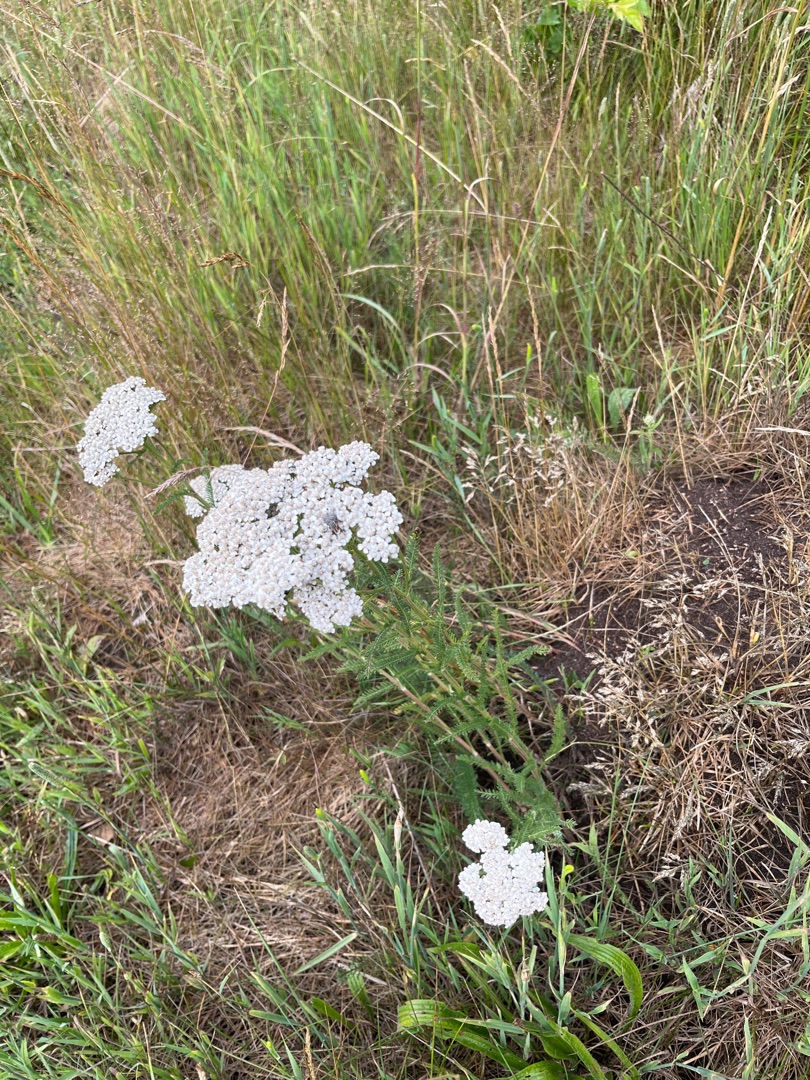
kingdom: Plantae
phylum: Tracheophyta
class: Magnoliopsida
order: Asterales
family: Asteraceae
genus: Achillea
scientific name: Achillea millefolium
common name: Almindelig røllike
